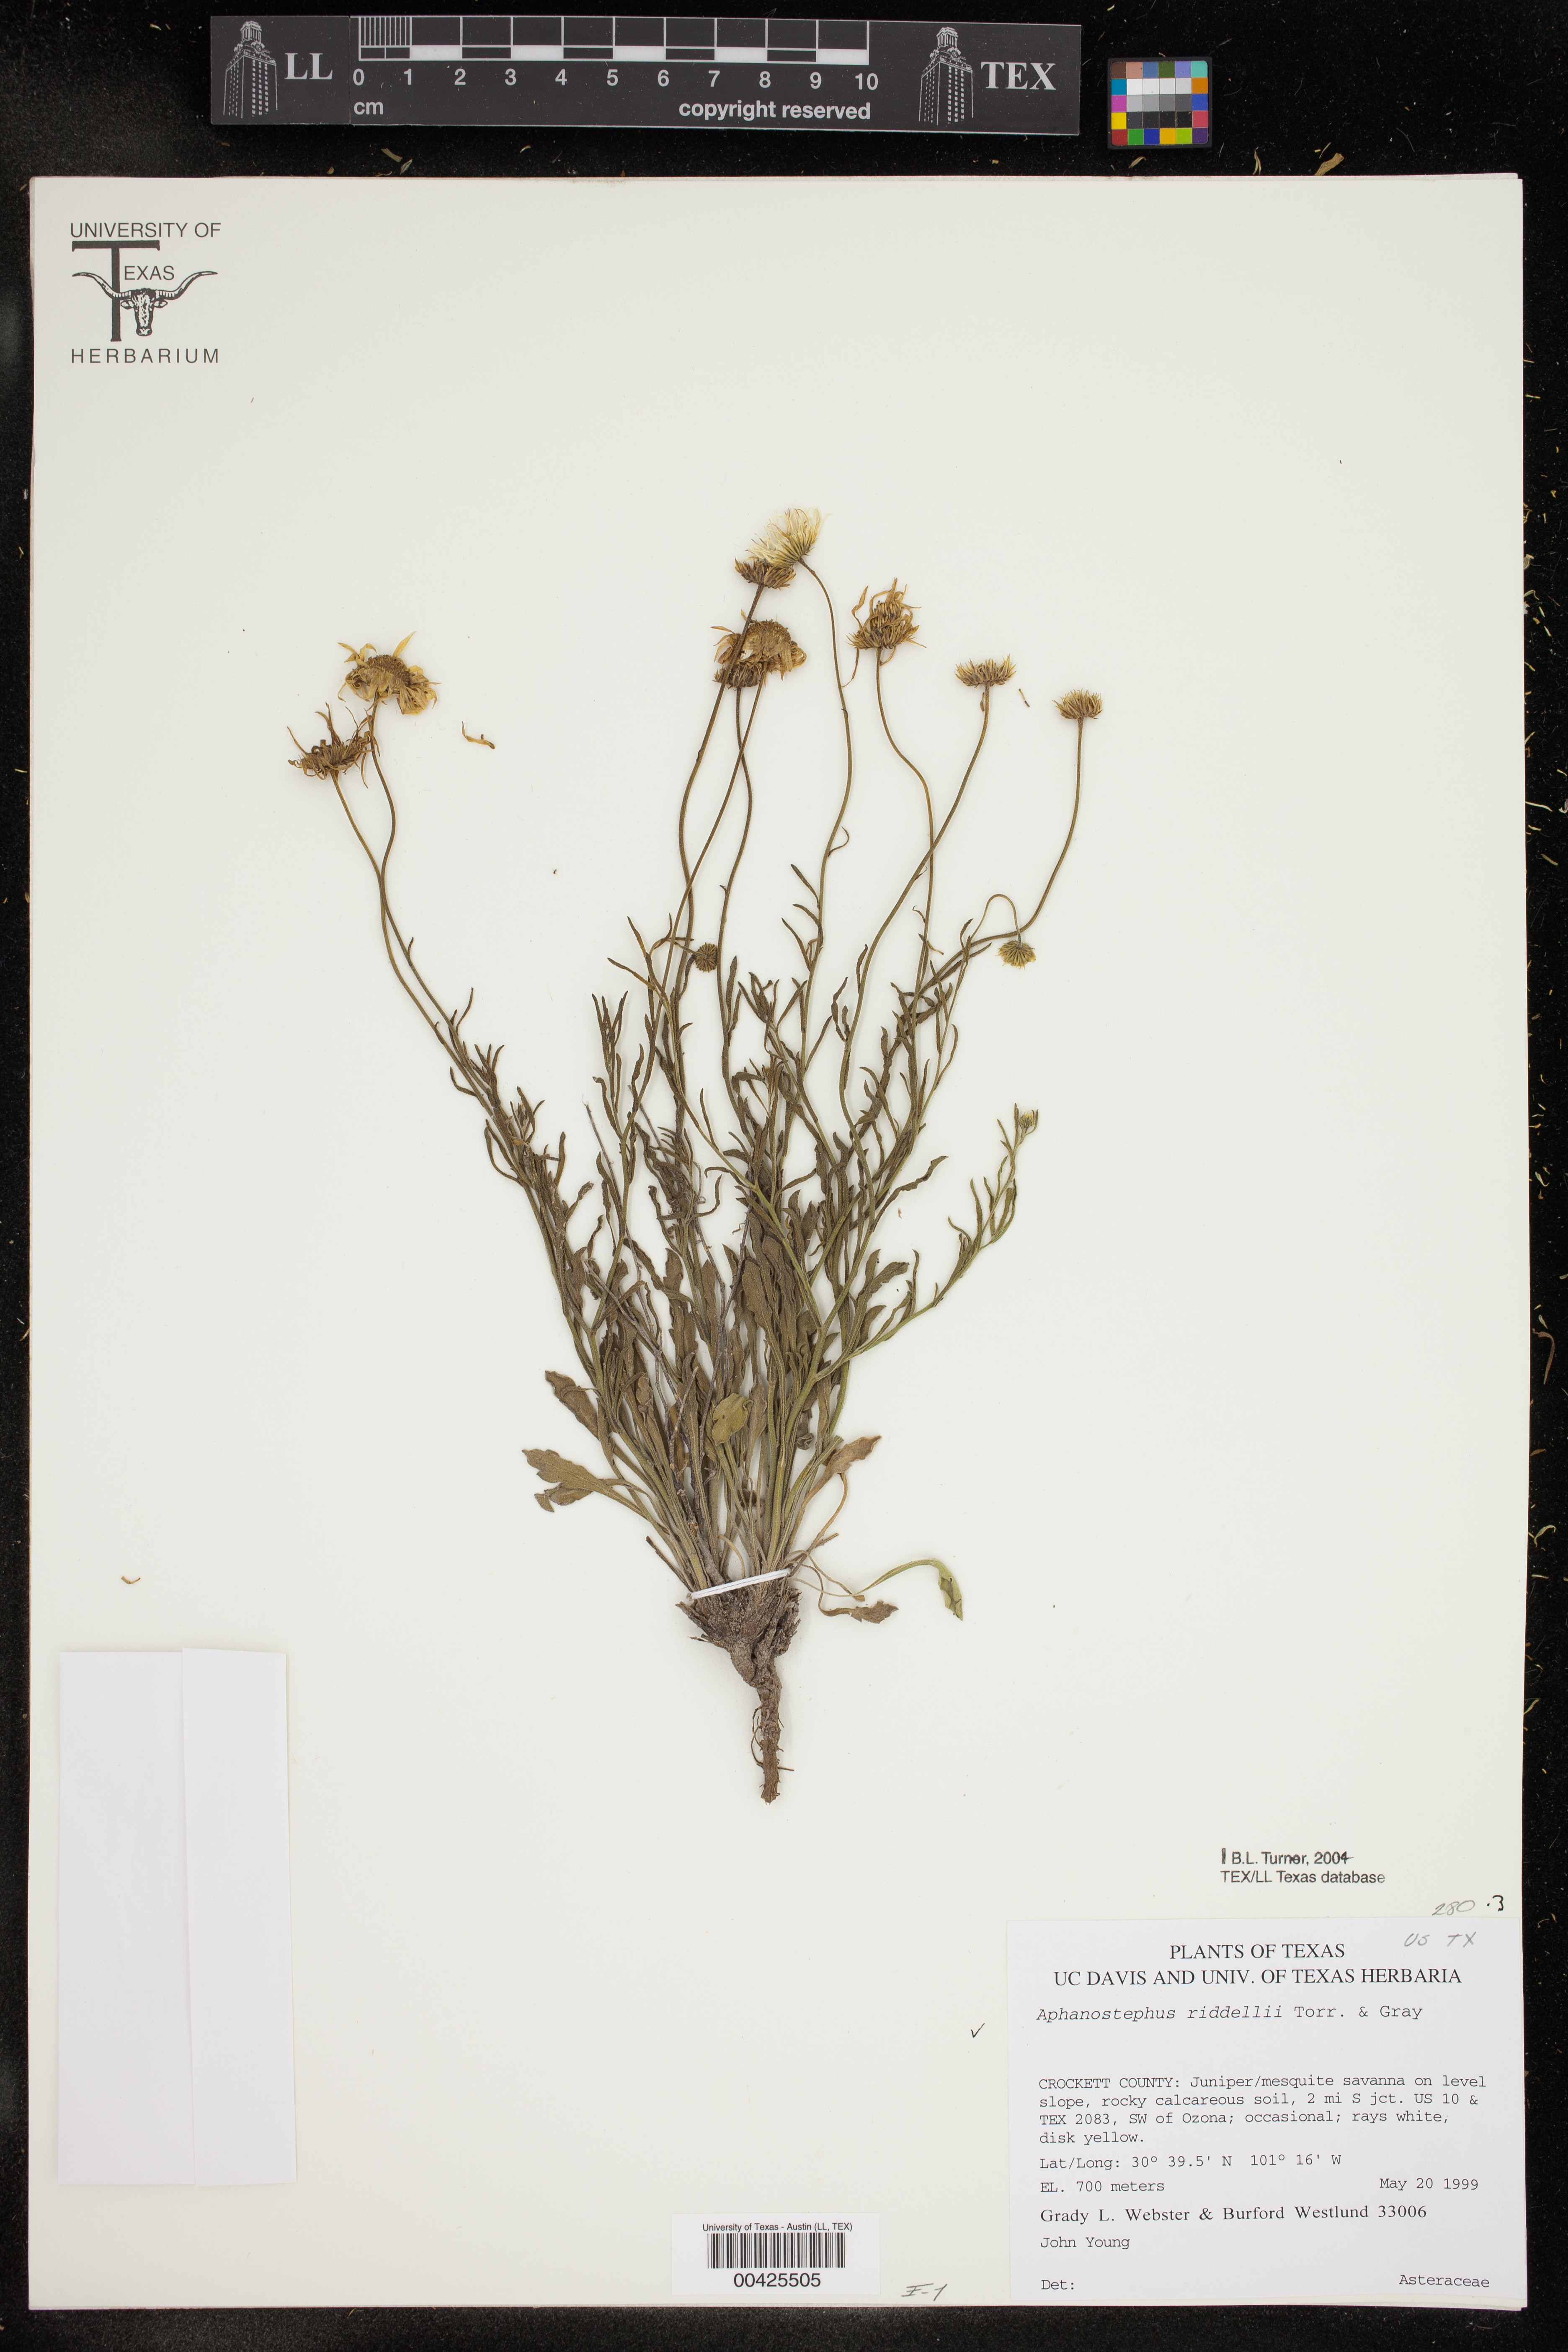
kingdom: Plantae
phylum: Tracheophyta
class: Magnoliopsida
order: Asterales
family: Asteraceae
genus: Aphanostephus
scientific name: Aphanostephus riddellii
